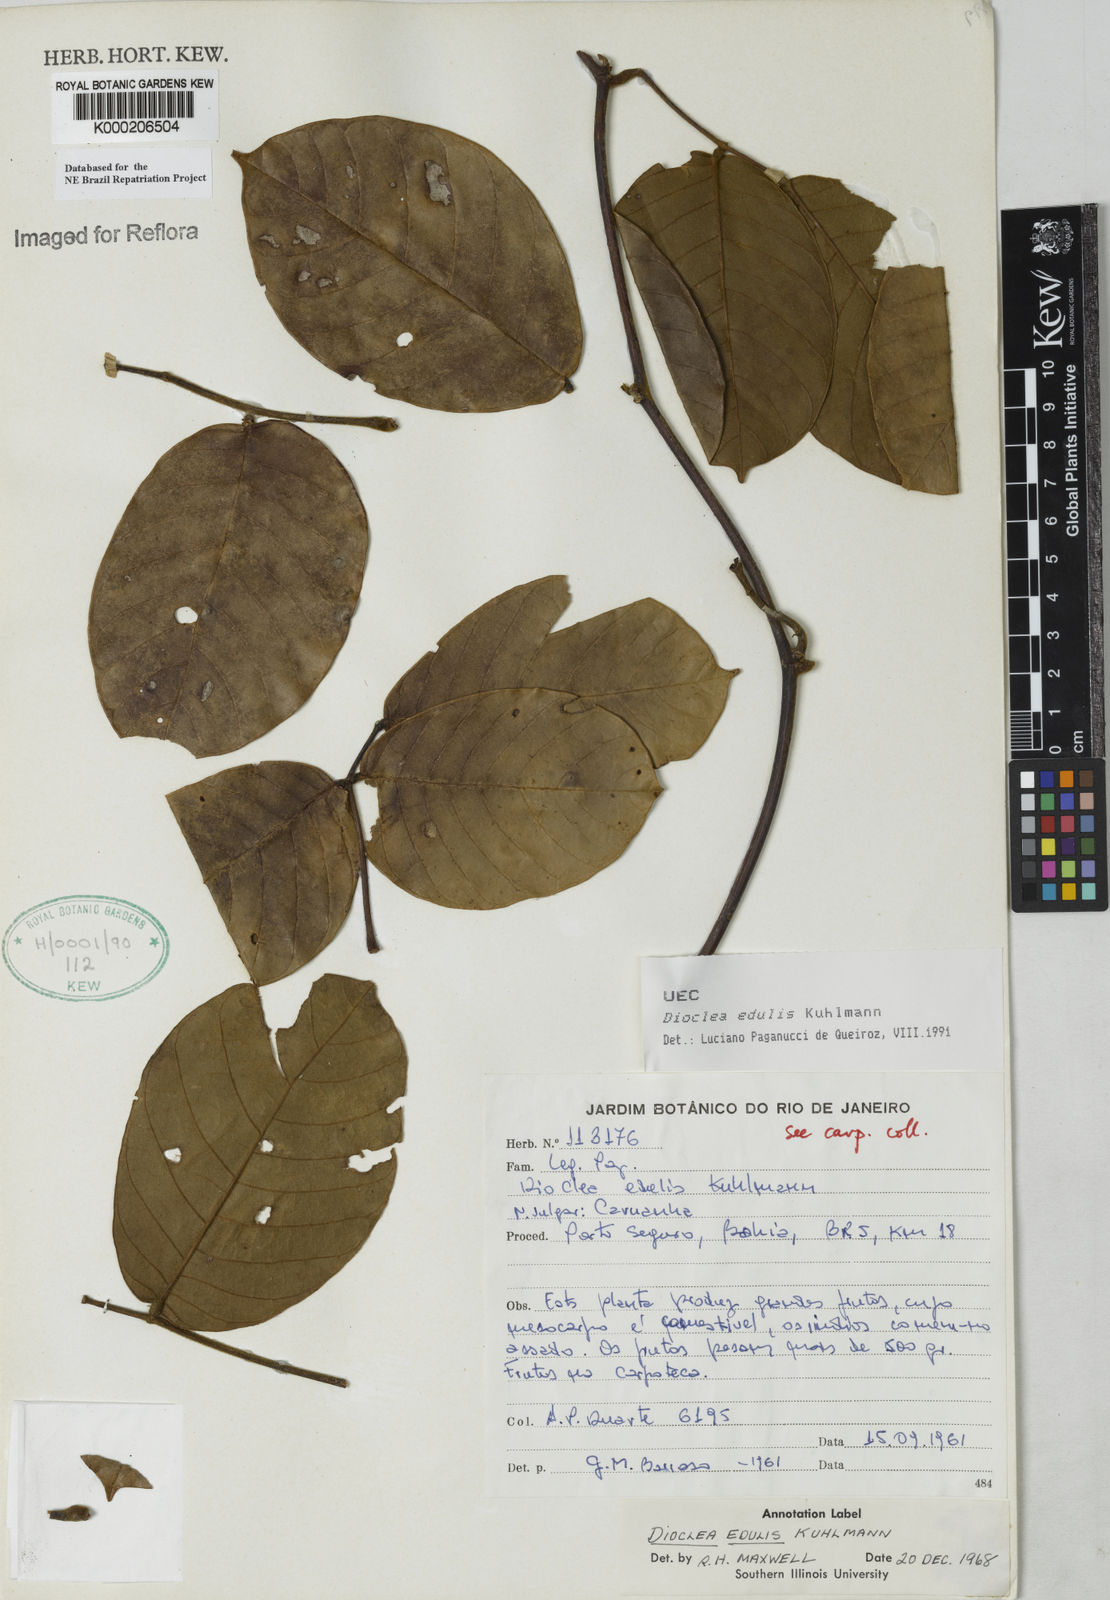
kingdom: Plantae
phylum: Tracheophyta
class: Magnoliopsida
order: Fabales
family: Fabaceae
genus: Macropsychanthus
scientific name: Macropsychanthus edulis
